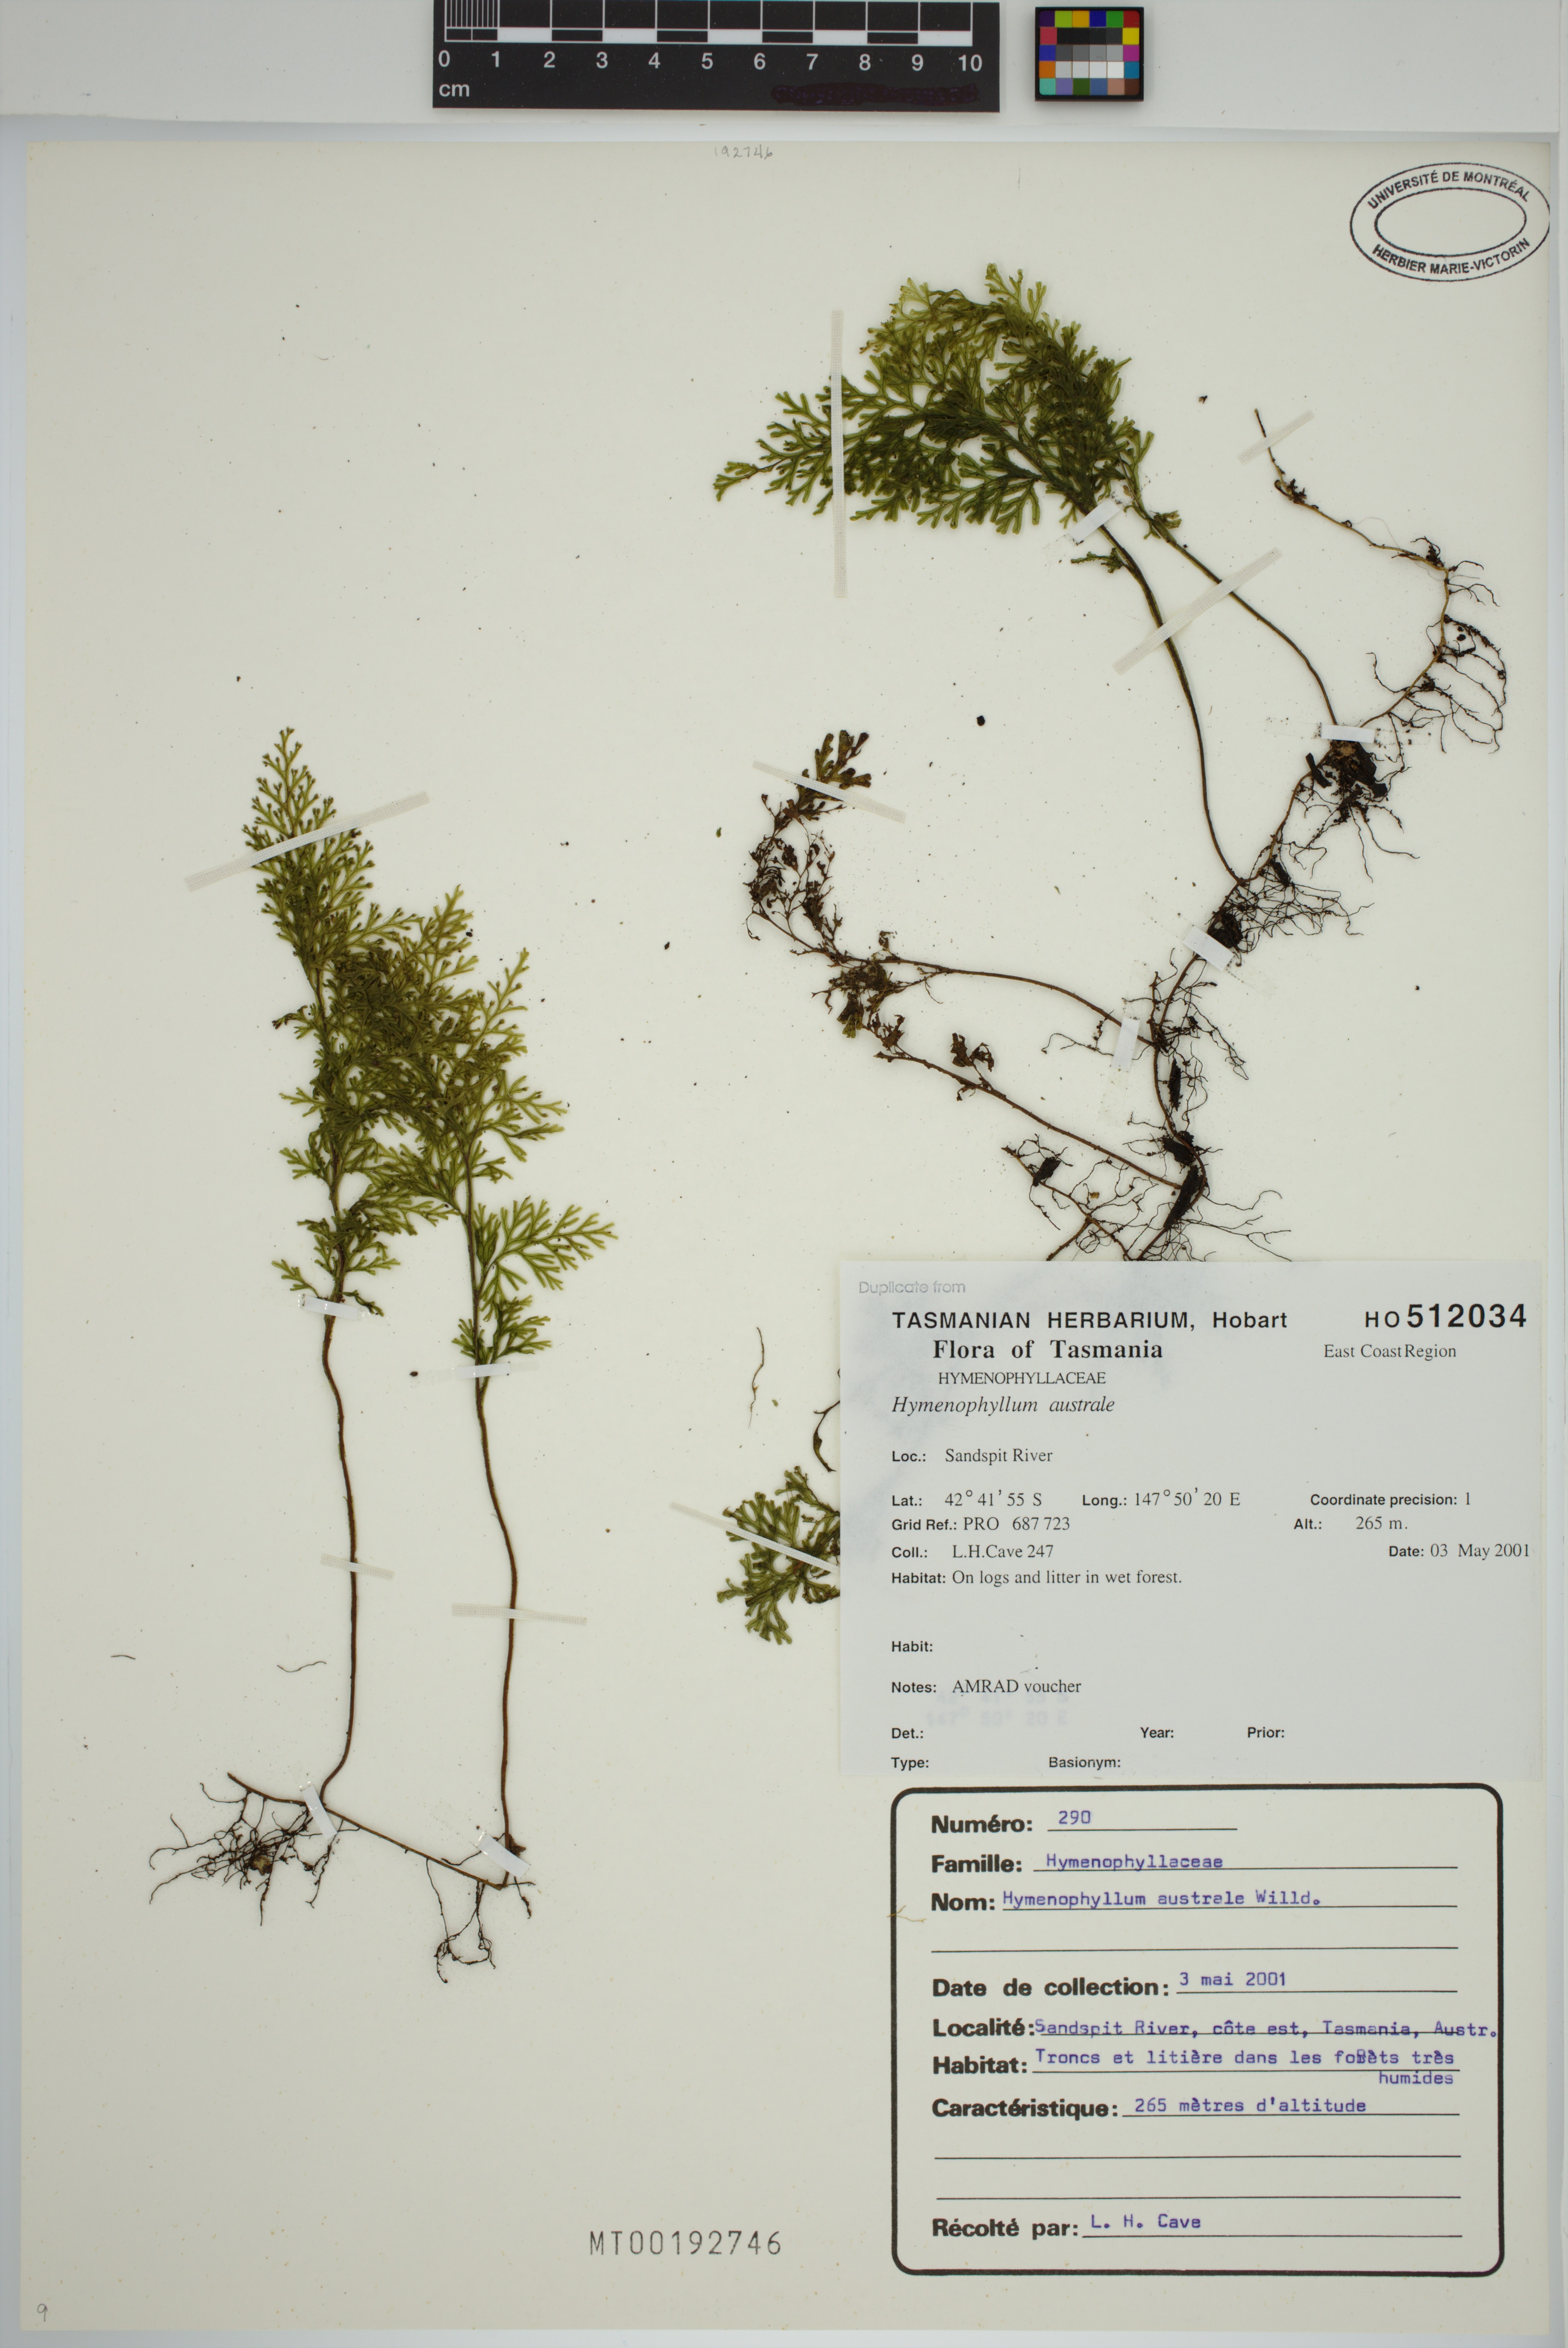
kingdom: Plantae
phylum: Tracheophyta
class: Polypodiopsida
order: Hymenophyllales
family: Hymenophyllaceae
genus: Hymenophyllum
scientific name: Hymenophyllum australe
